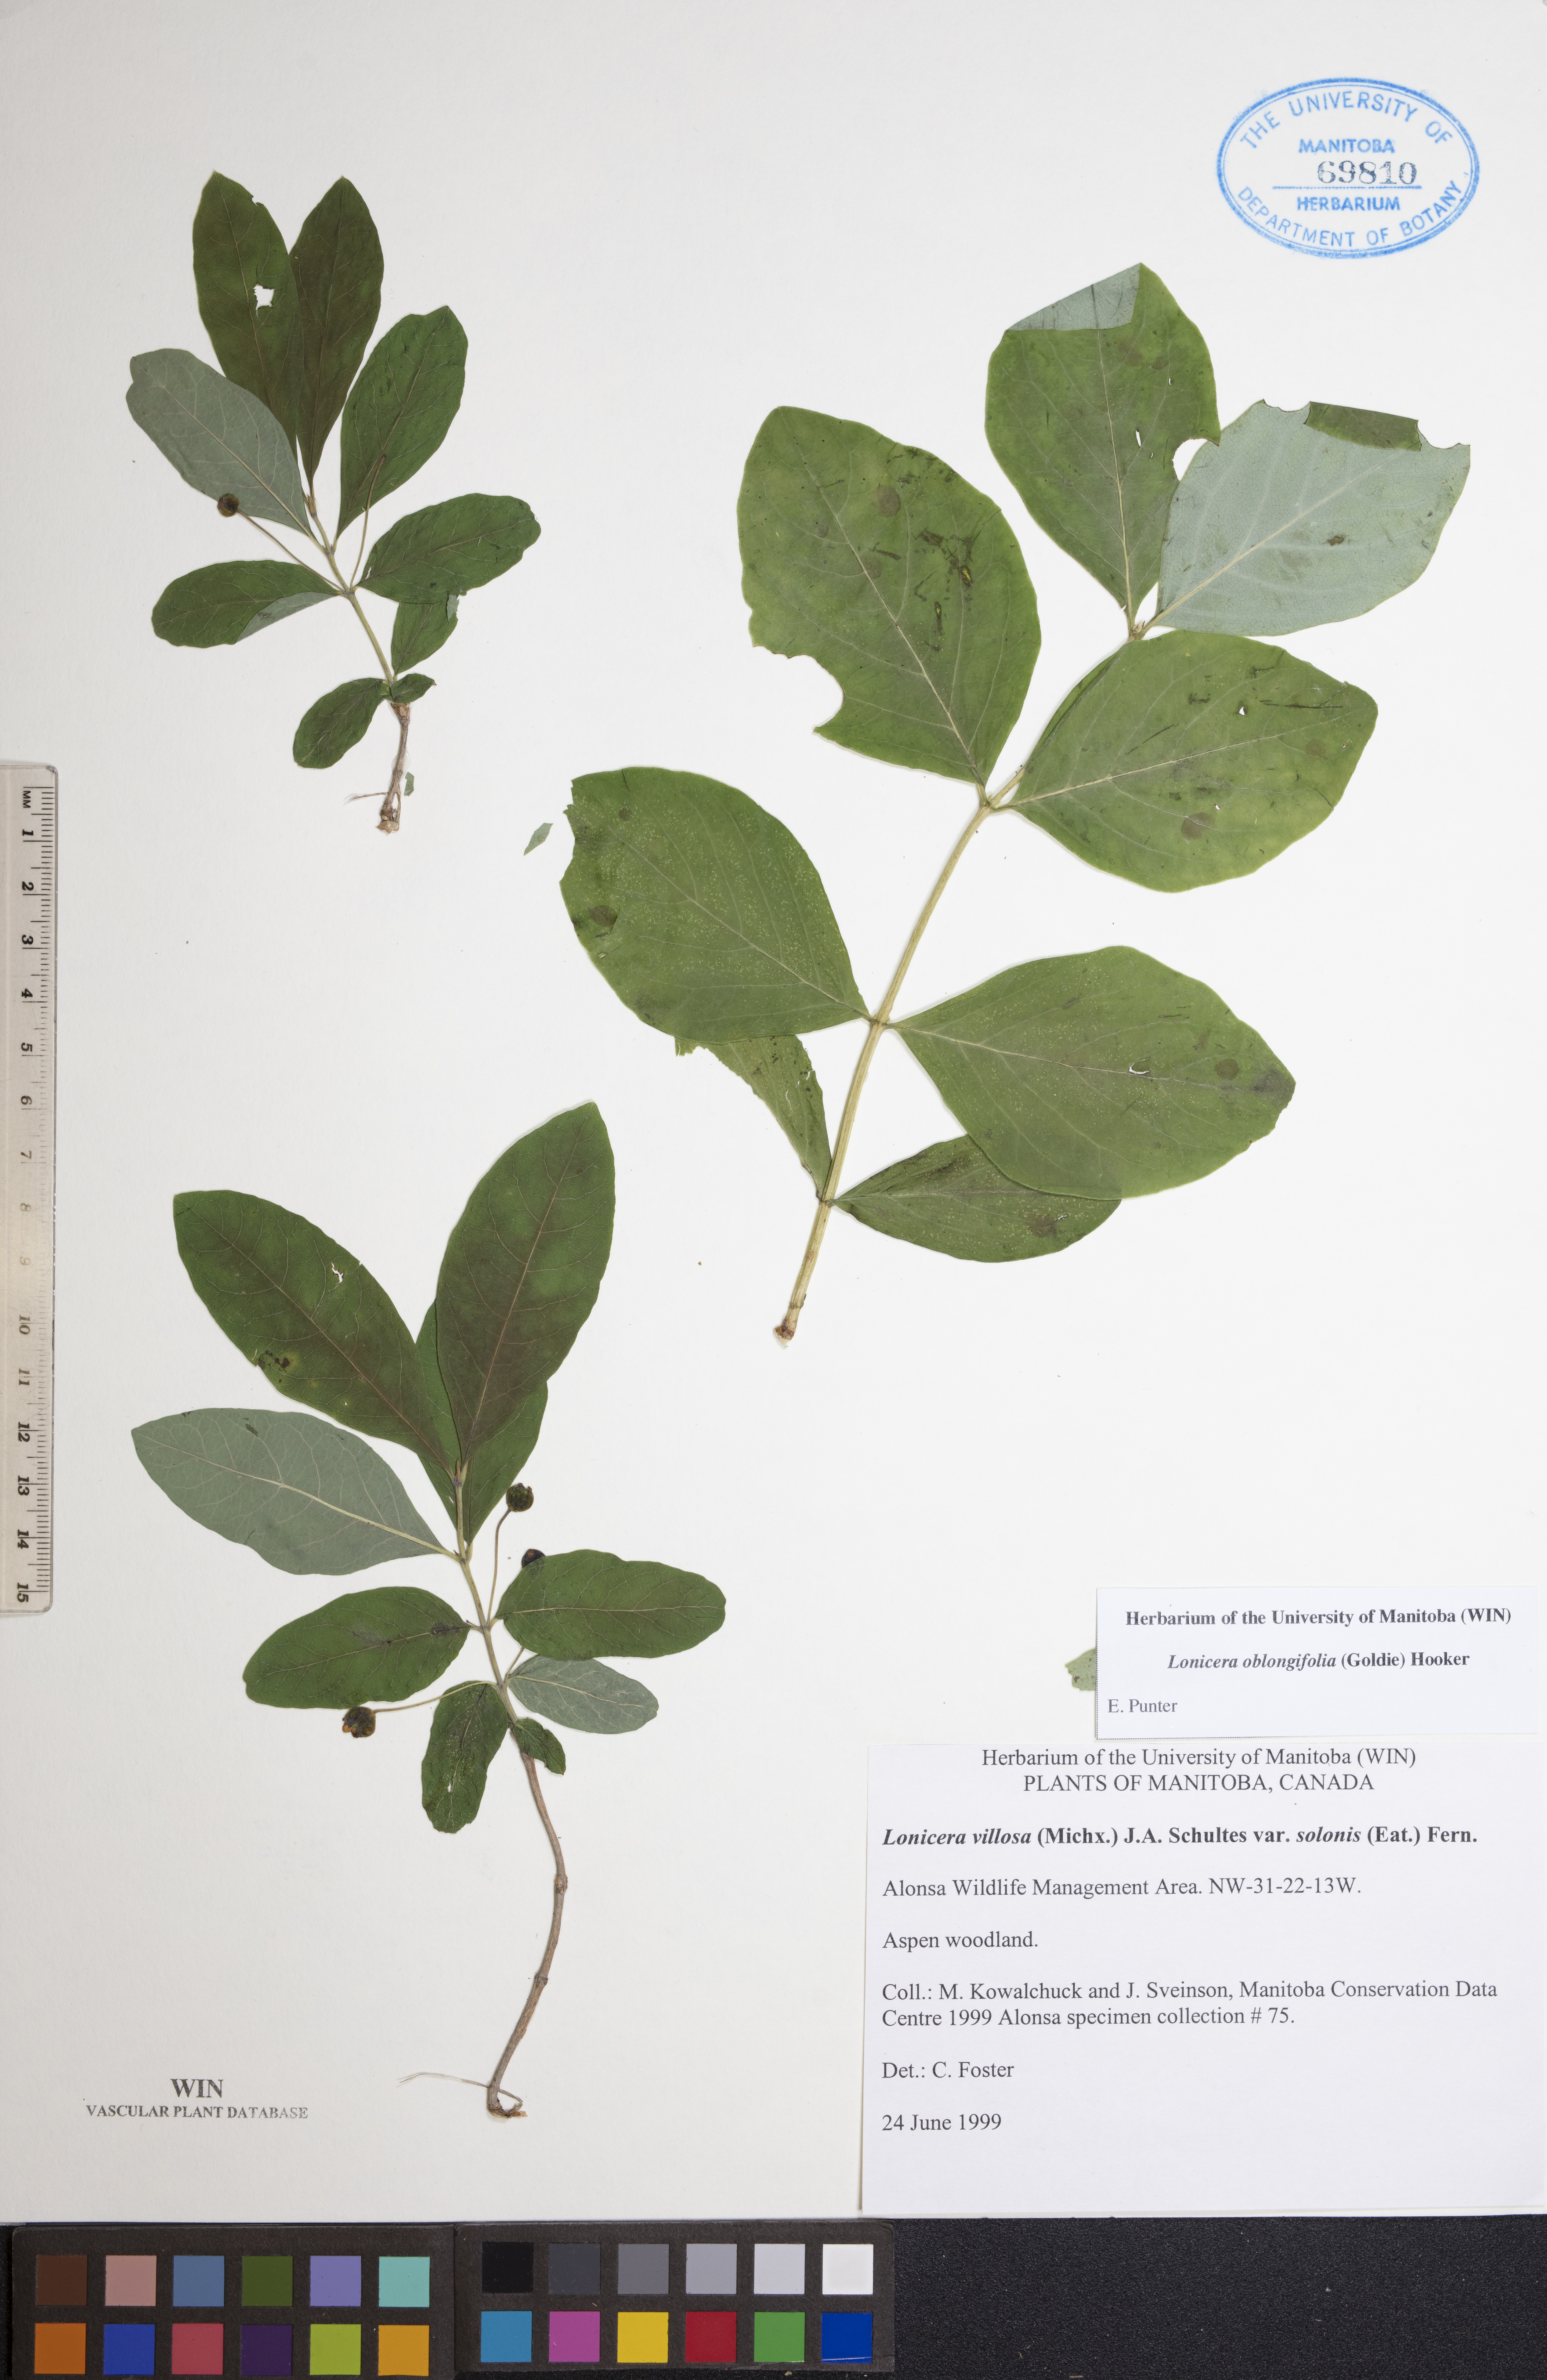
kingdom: Plantae
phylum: Tracheophyta
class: Magnoliopsida
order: Dipsacales
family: Caprifoliaceae
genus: Lonicera
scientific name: Lonicera oblongifolia
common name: Swamp fly honeysuckle
